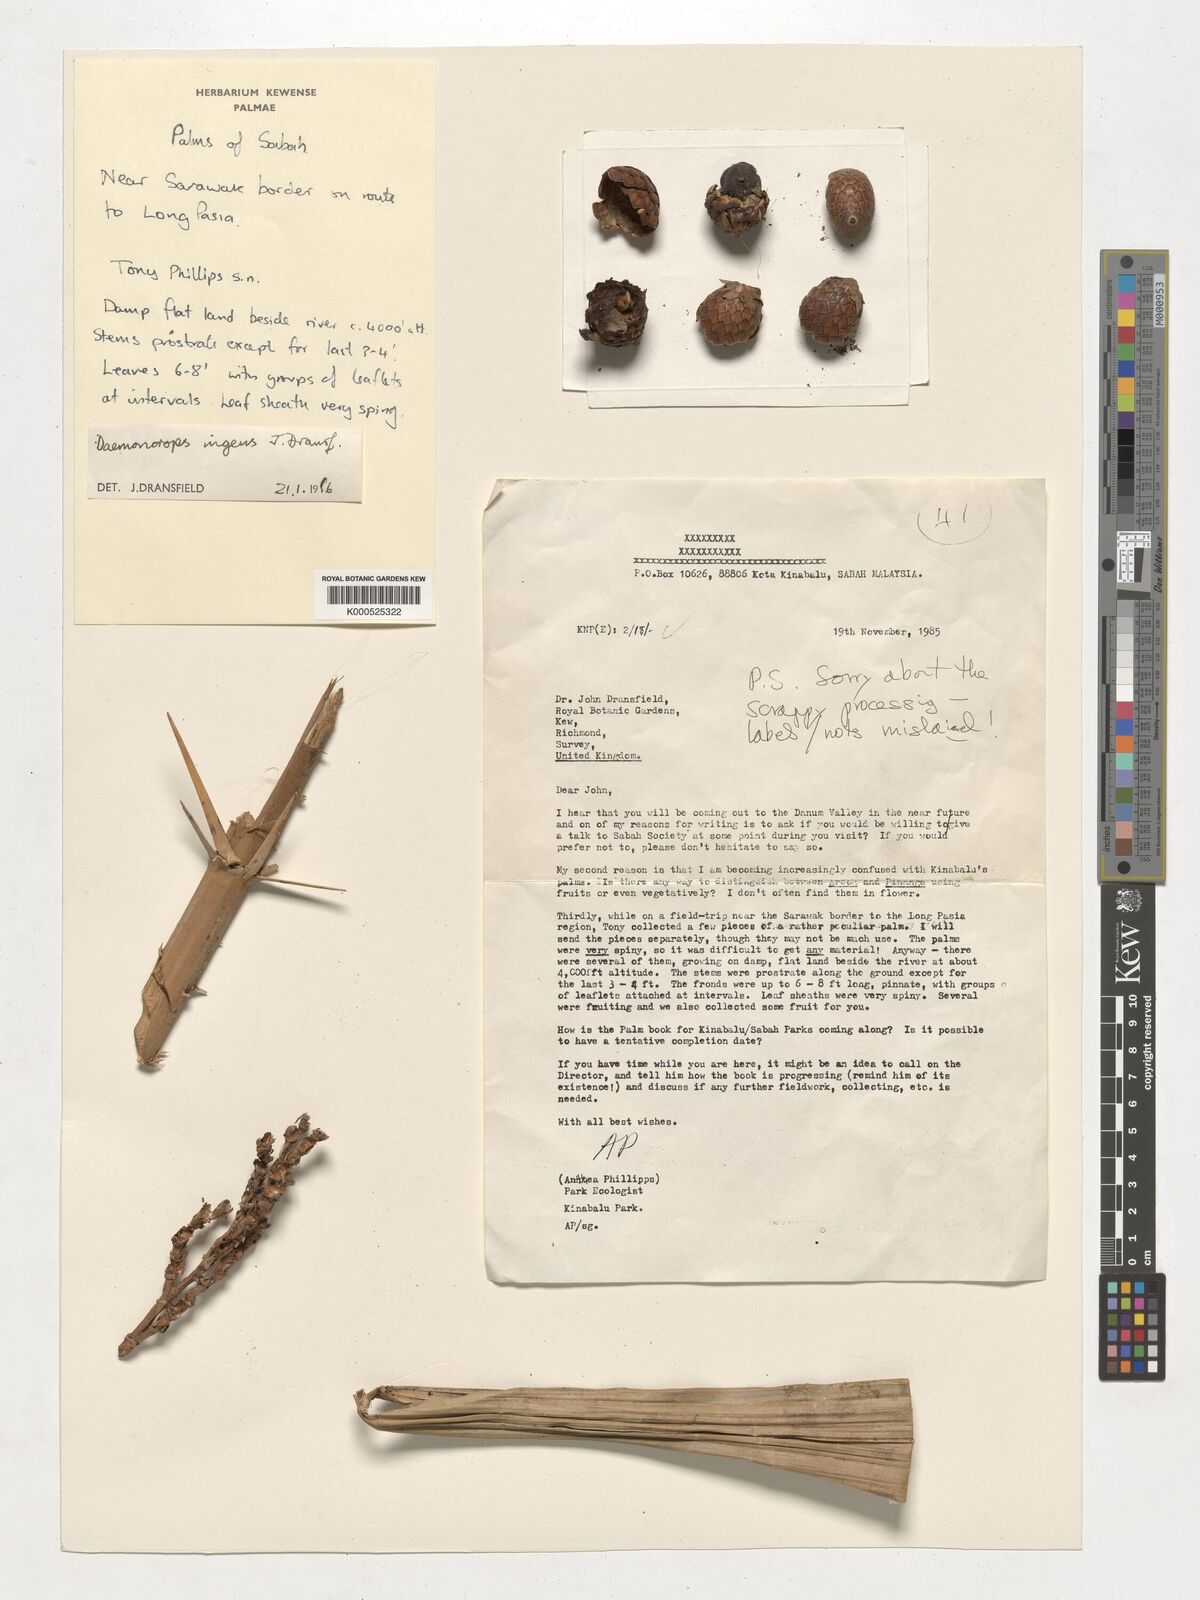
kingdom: Plantae
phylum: Tracheophyta
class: Liliopsida
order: Arecales
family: Arecaceae
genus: Calamus
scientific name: Calamus ingens
